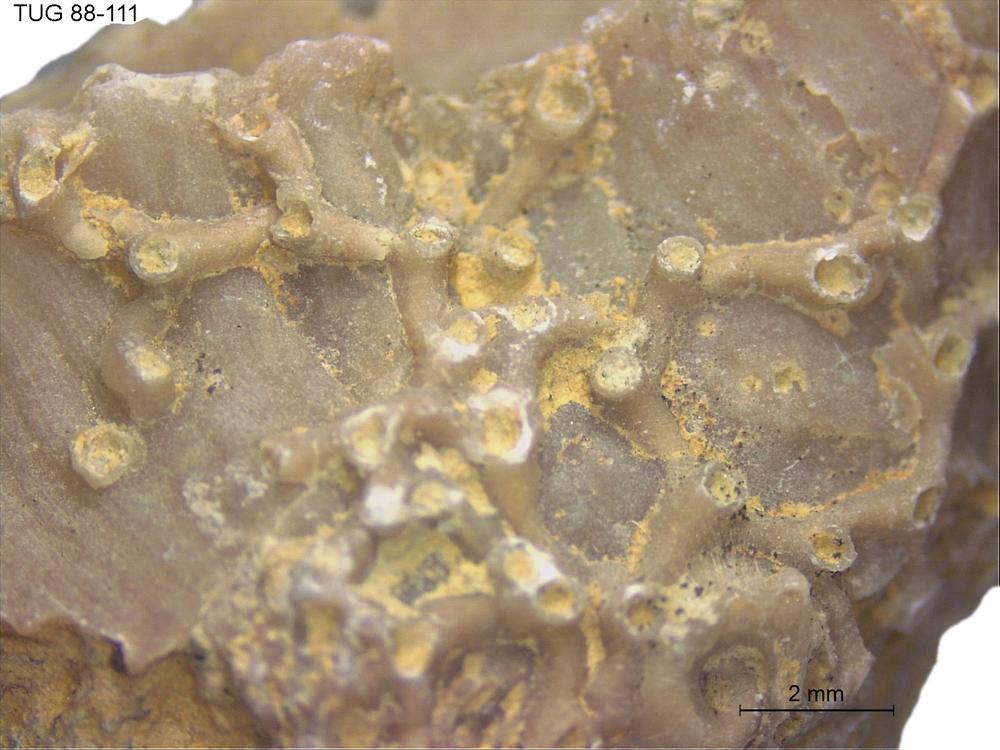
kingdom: Animalia
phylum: Cnidaria
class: Anthozoa
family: Auloporidae
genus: Aulopora
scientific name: Aulopora
